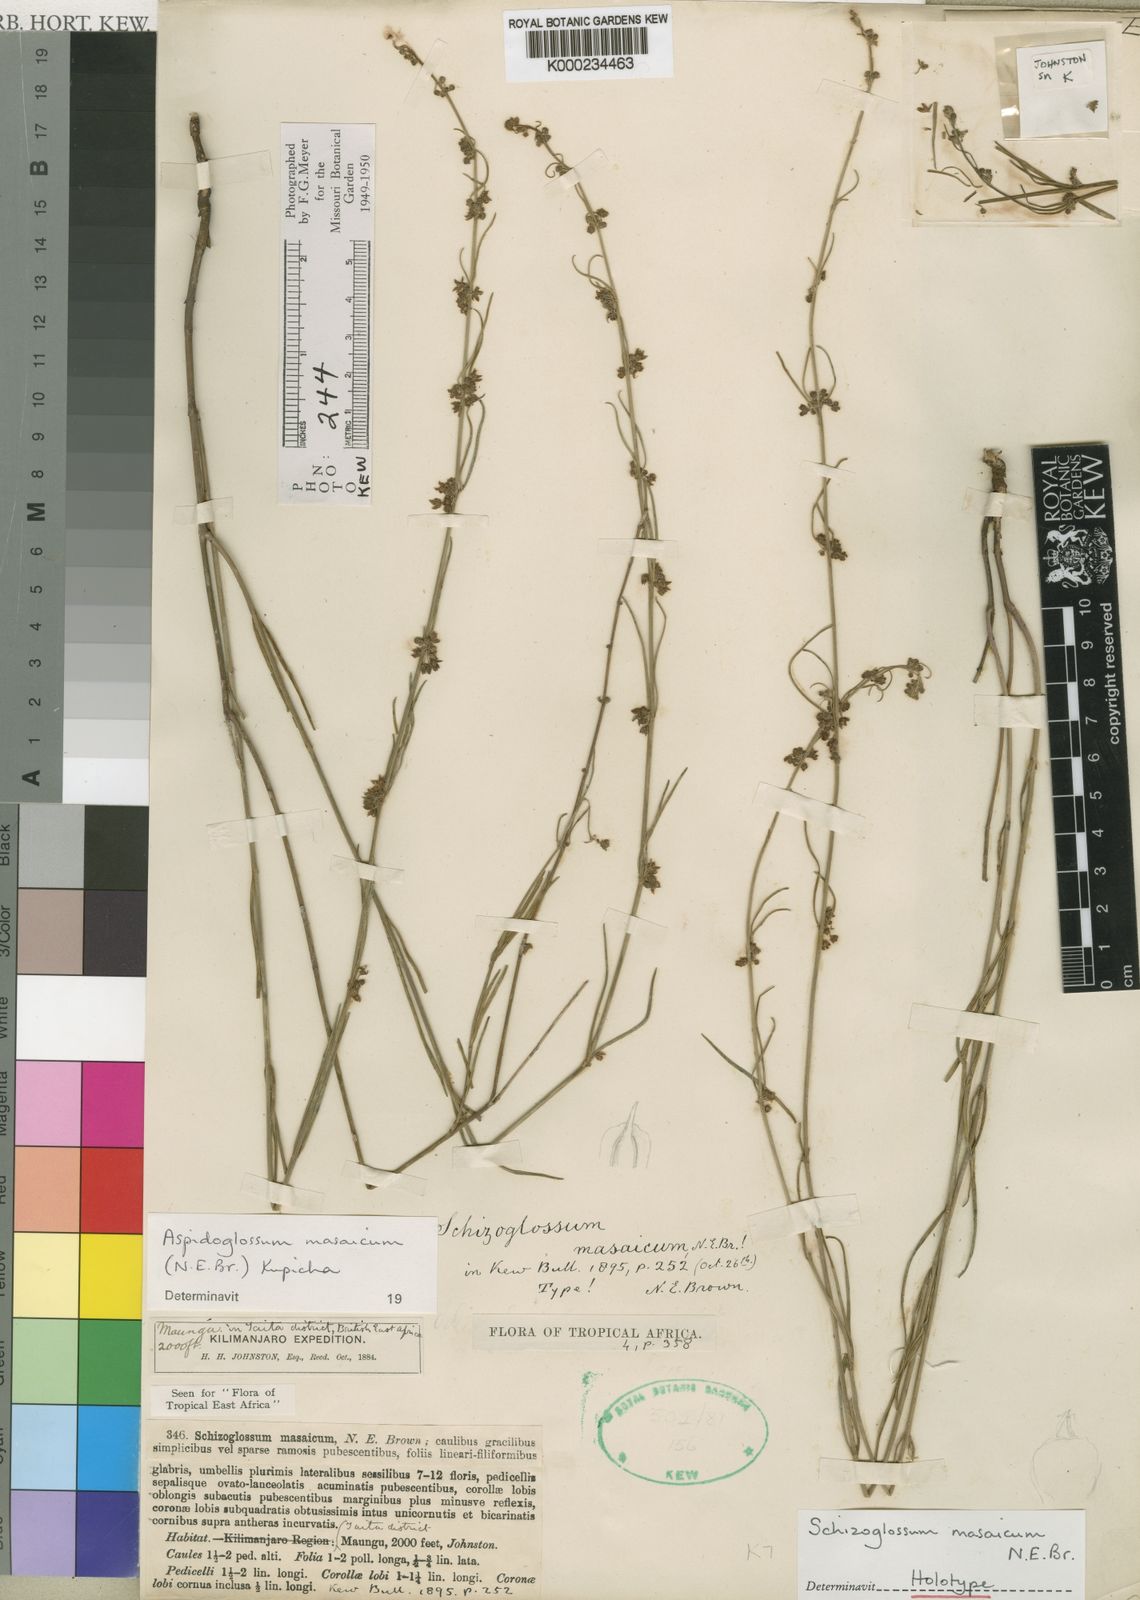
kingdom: Plantae
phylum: Tracheophyta
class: Magnoliopsida
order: Gentianales
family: Apocynaceae
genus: Aspidoglossum
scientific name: Aspidoglossum masaicum
